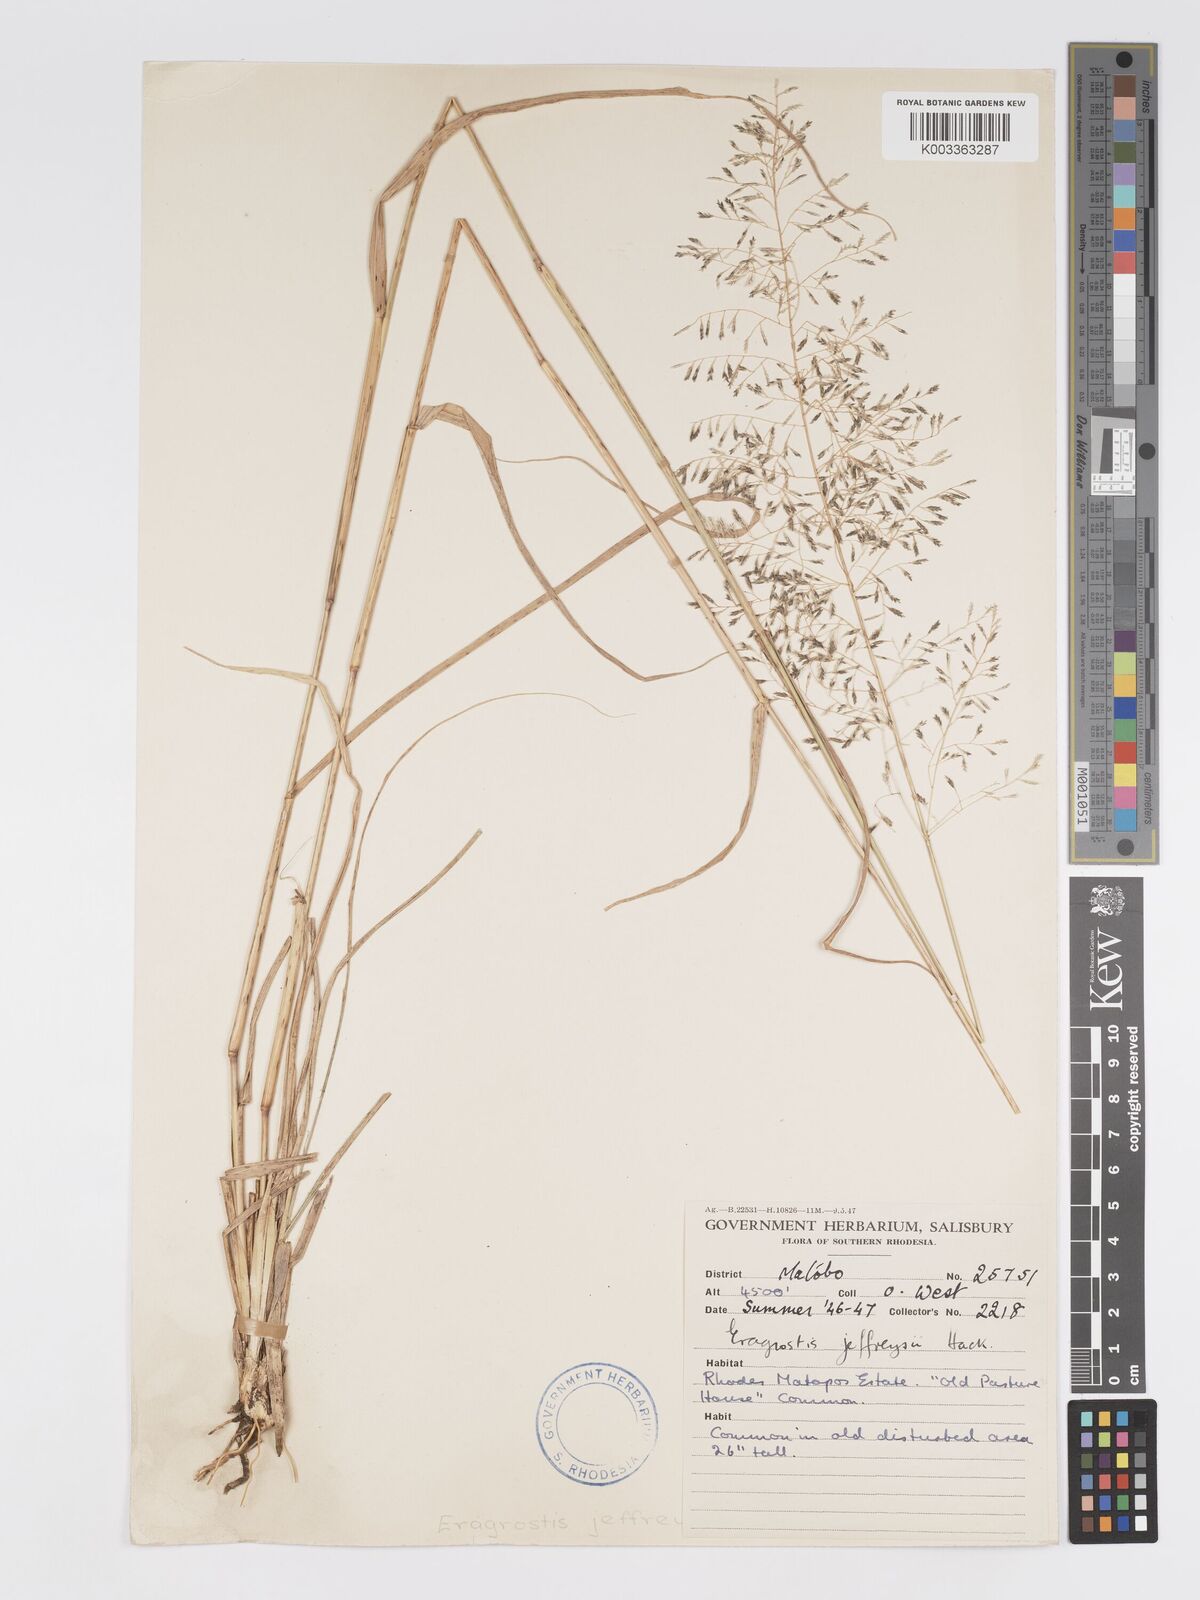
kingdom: Plantae
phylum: Tracheophyta
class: Liliopsida
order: Poales
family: Poaceae
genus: Eragrostis
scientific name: Eragrostis curvula
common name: African love-grass
